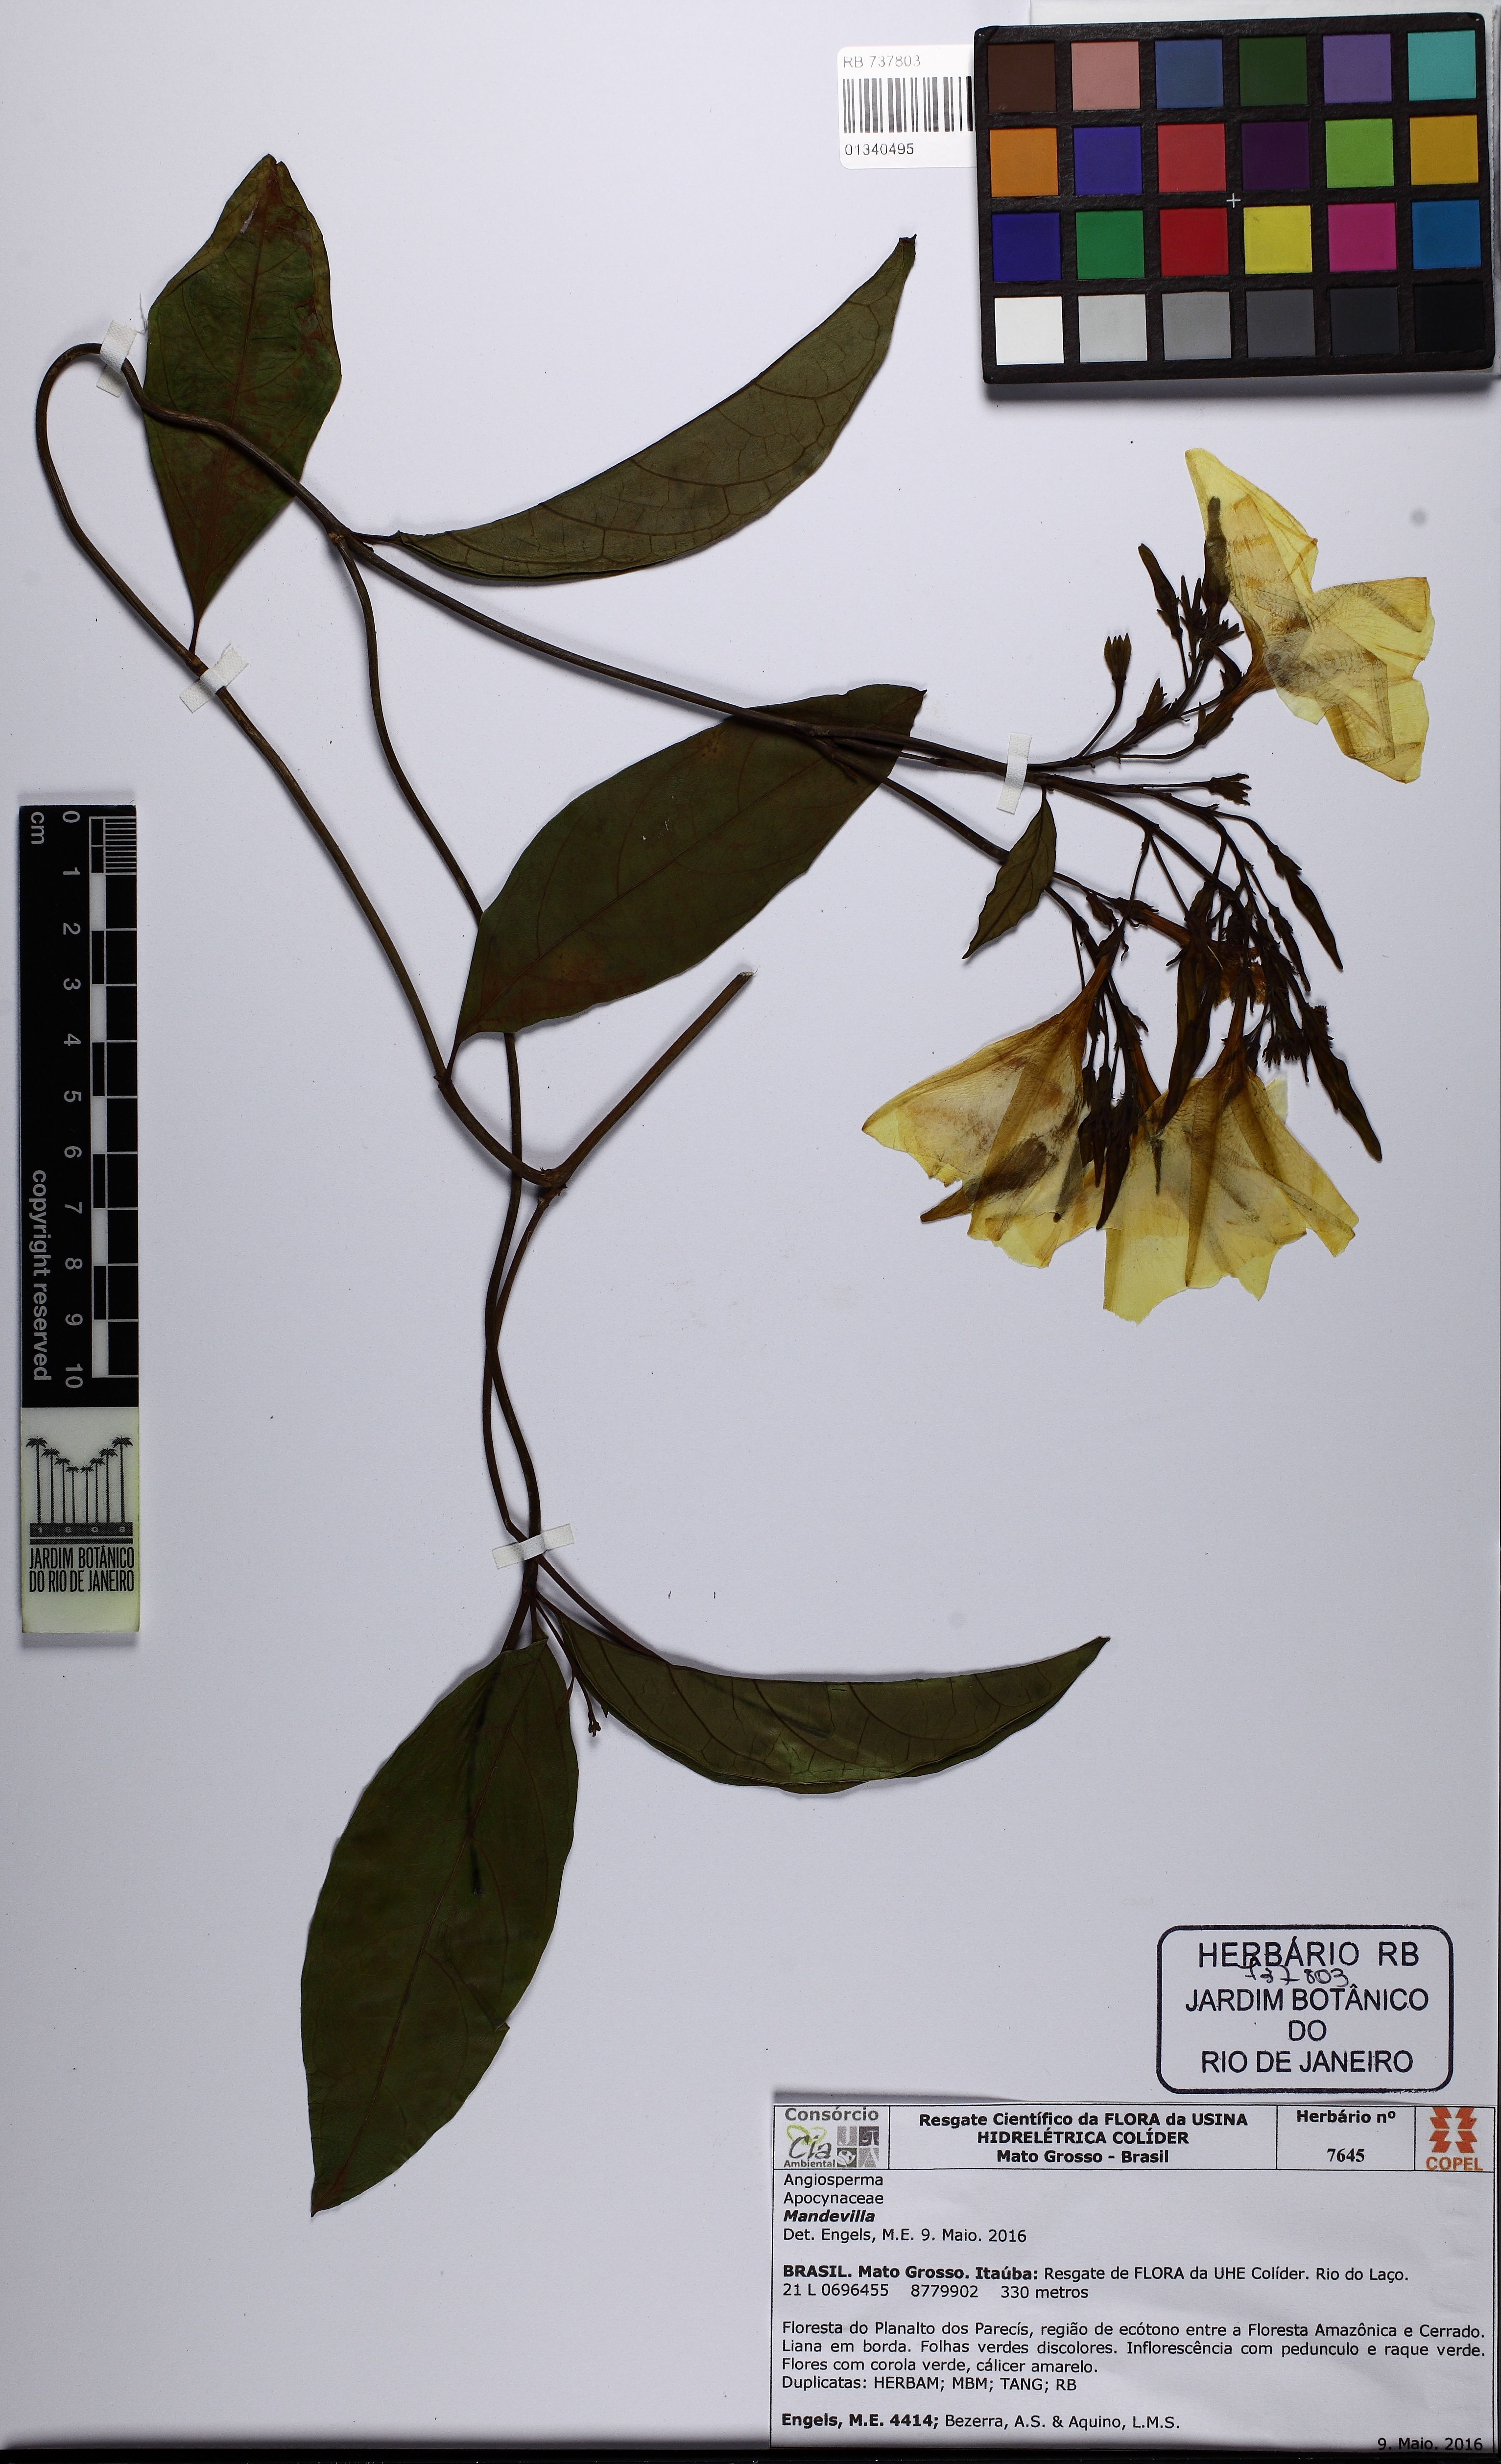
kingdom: Plantae
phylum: Tracheophyta
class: Magnoliopsida
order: Gentianales
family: Apocynaceae
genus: Mandevilla
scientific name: Mandevilla
